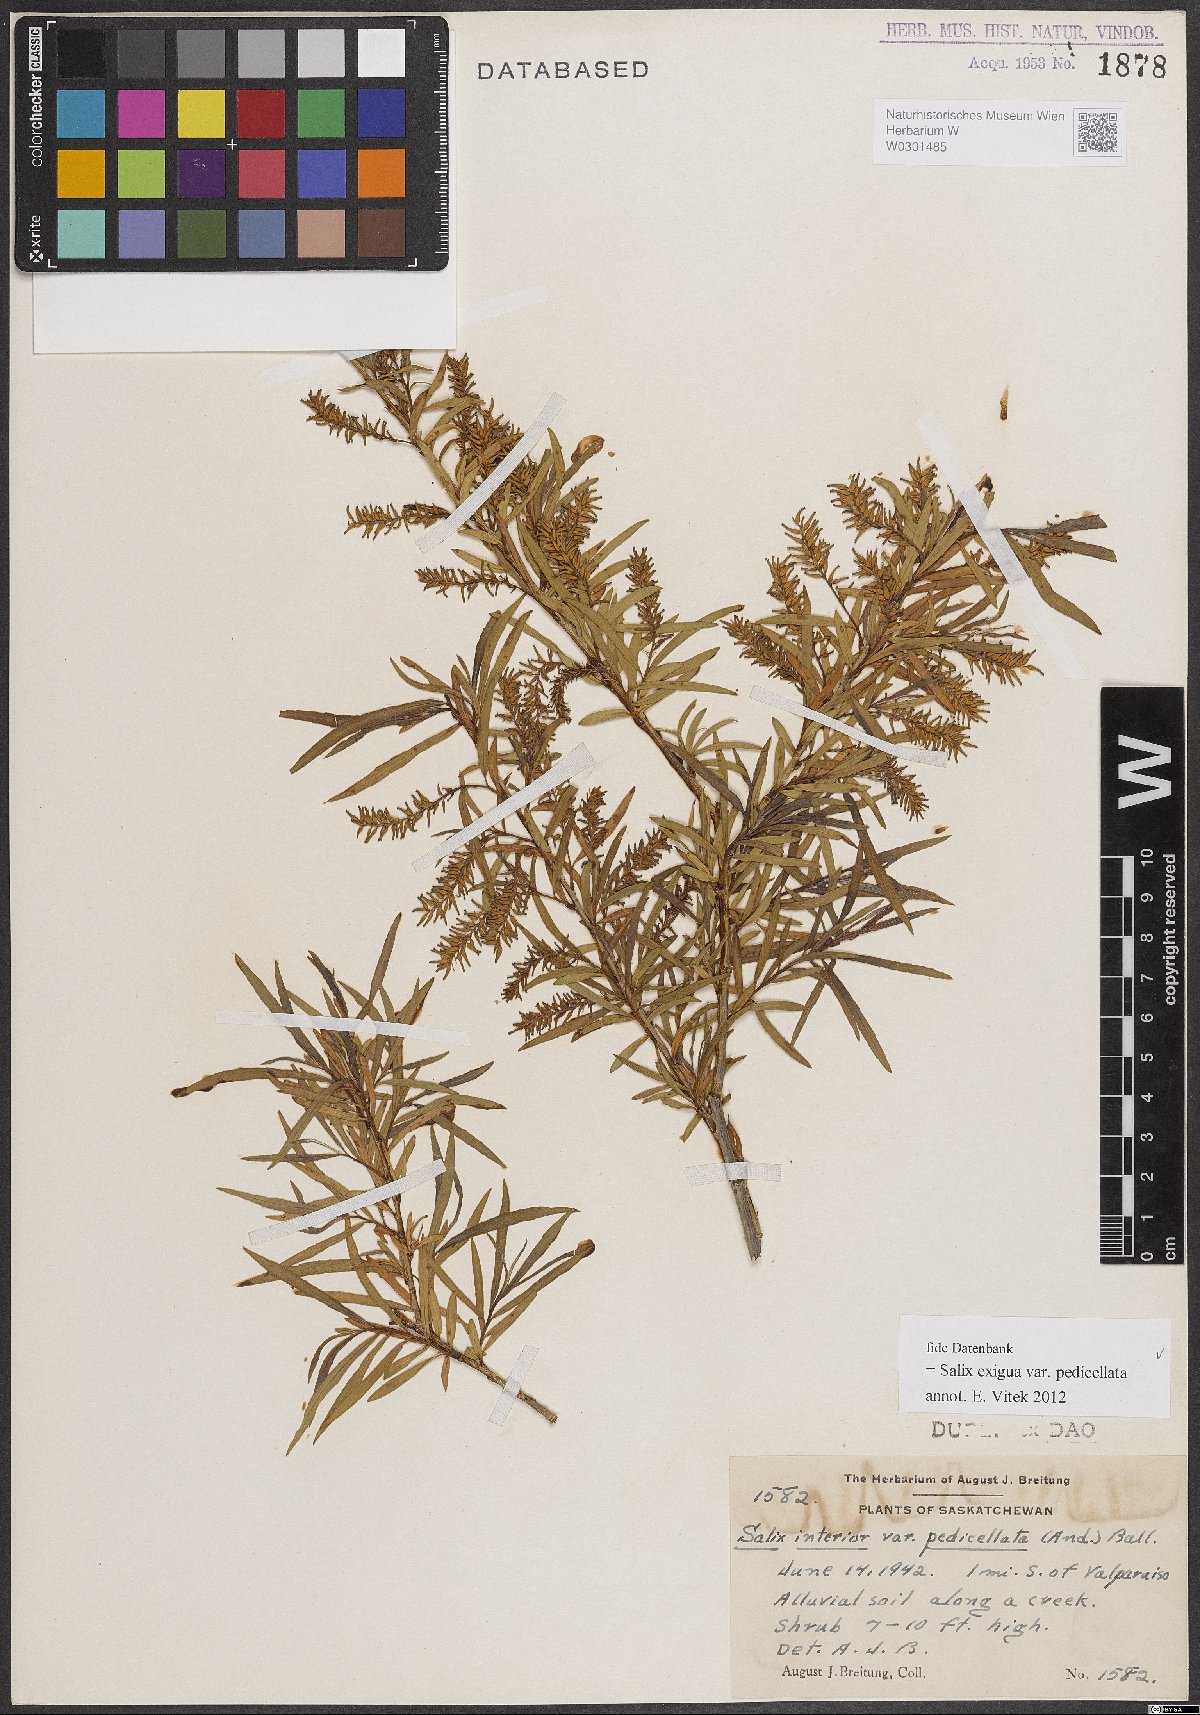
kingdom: Plantae
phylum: Tracheophyta
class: Magnoliopsida
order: Malpighiales
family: Salicaceae
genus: Salix
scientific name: Salix interior
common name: Sandbar willow
